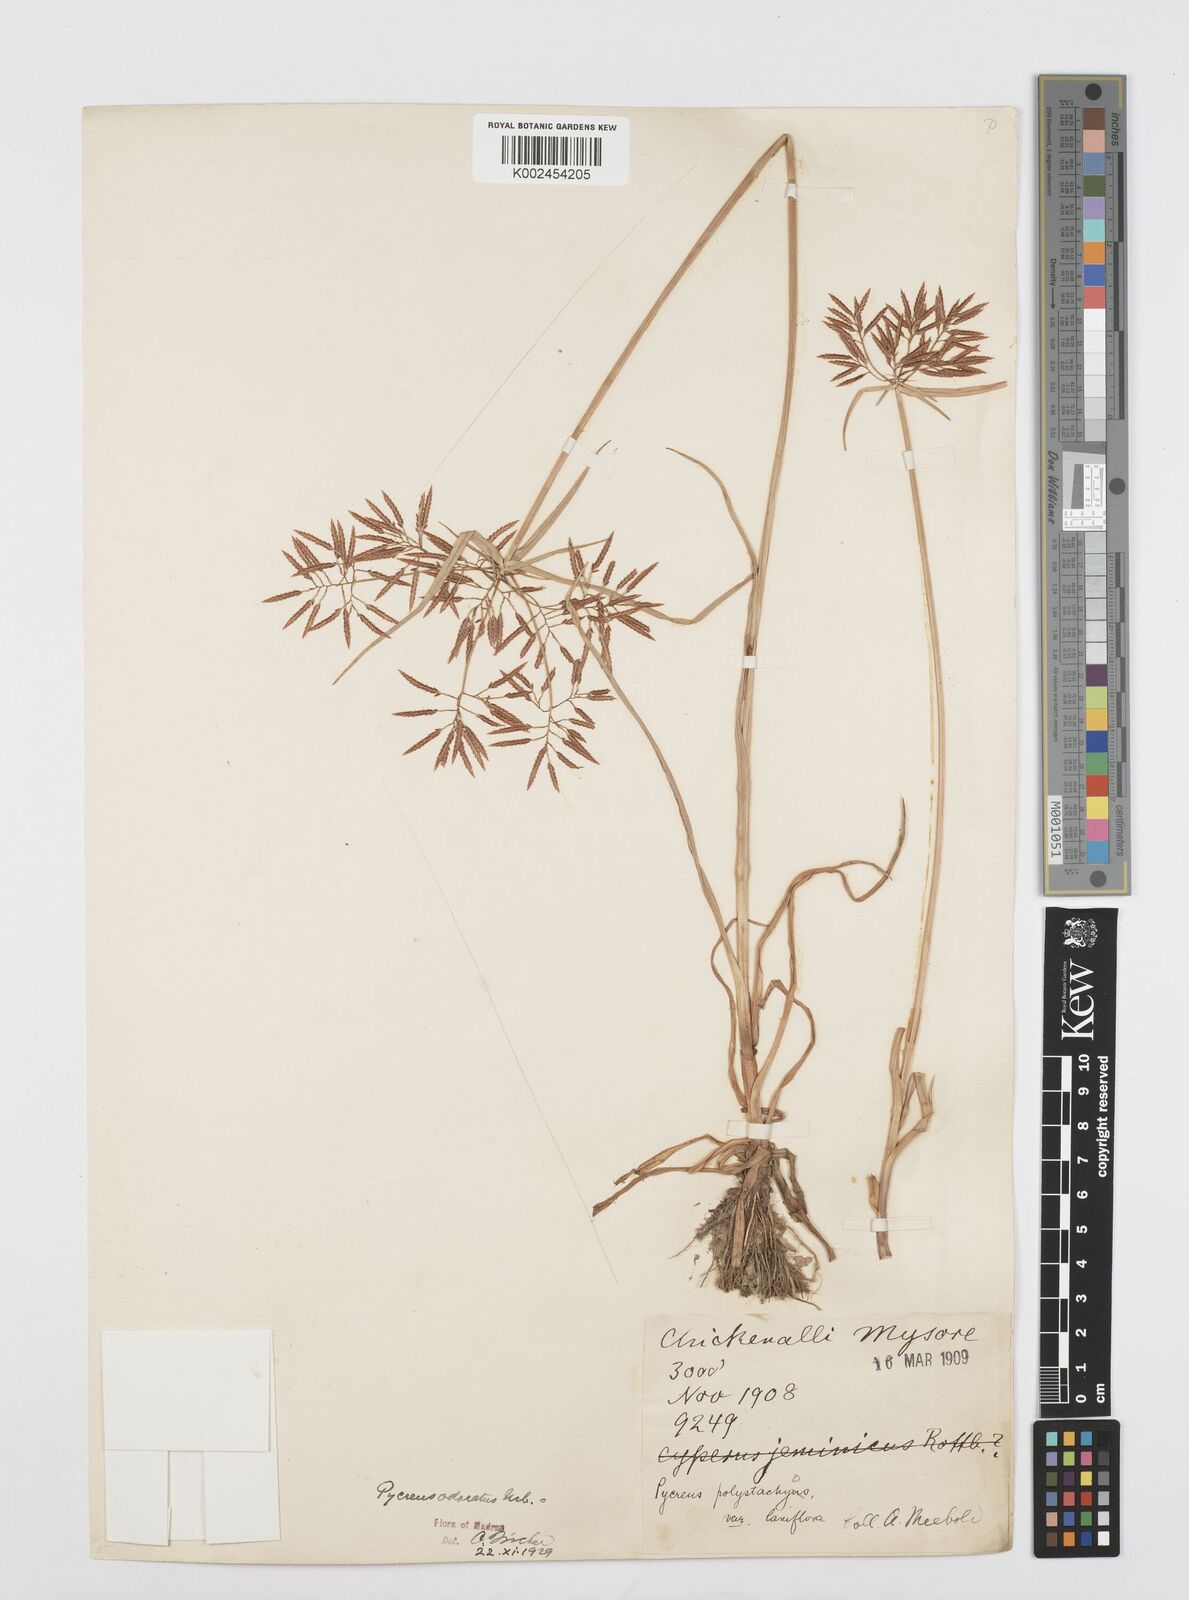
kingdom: Plantae
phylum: Tracheophyta
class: Liliopsida
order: Poales
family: Cyperaceae
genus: Cyperus
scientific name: Cyperus polystachyos
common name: Bunchy flat sedge
